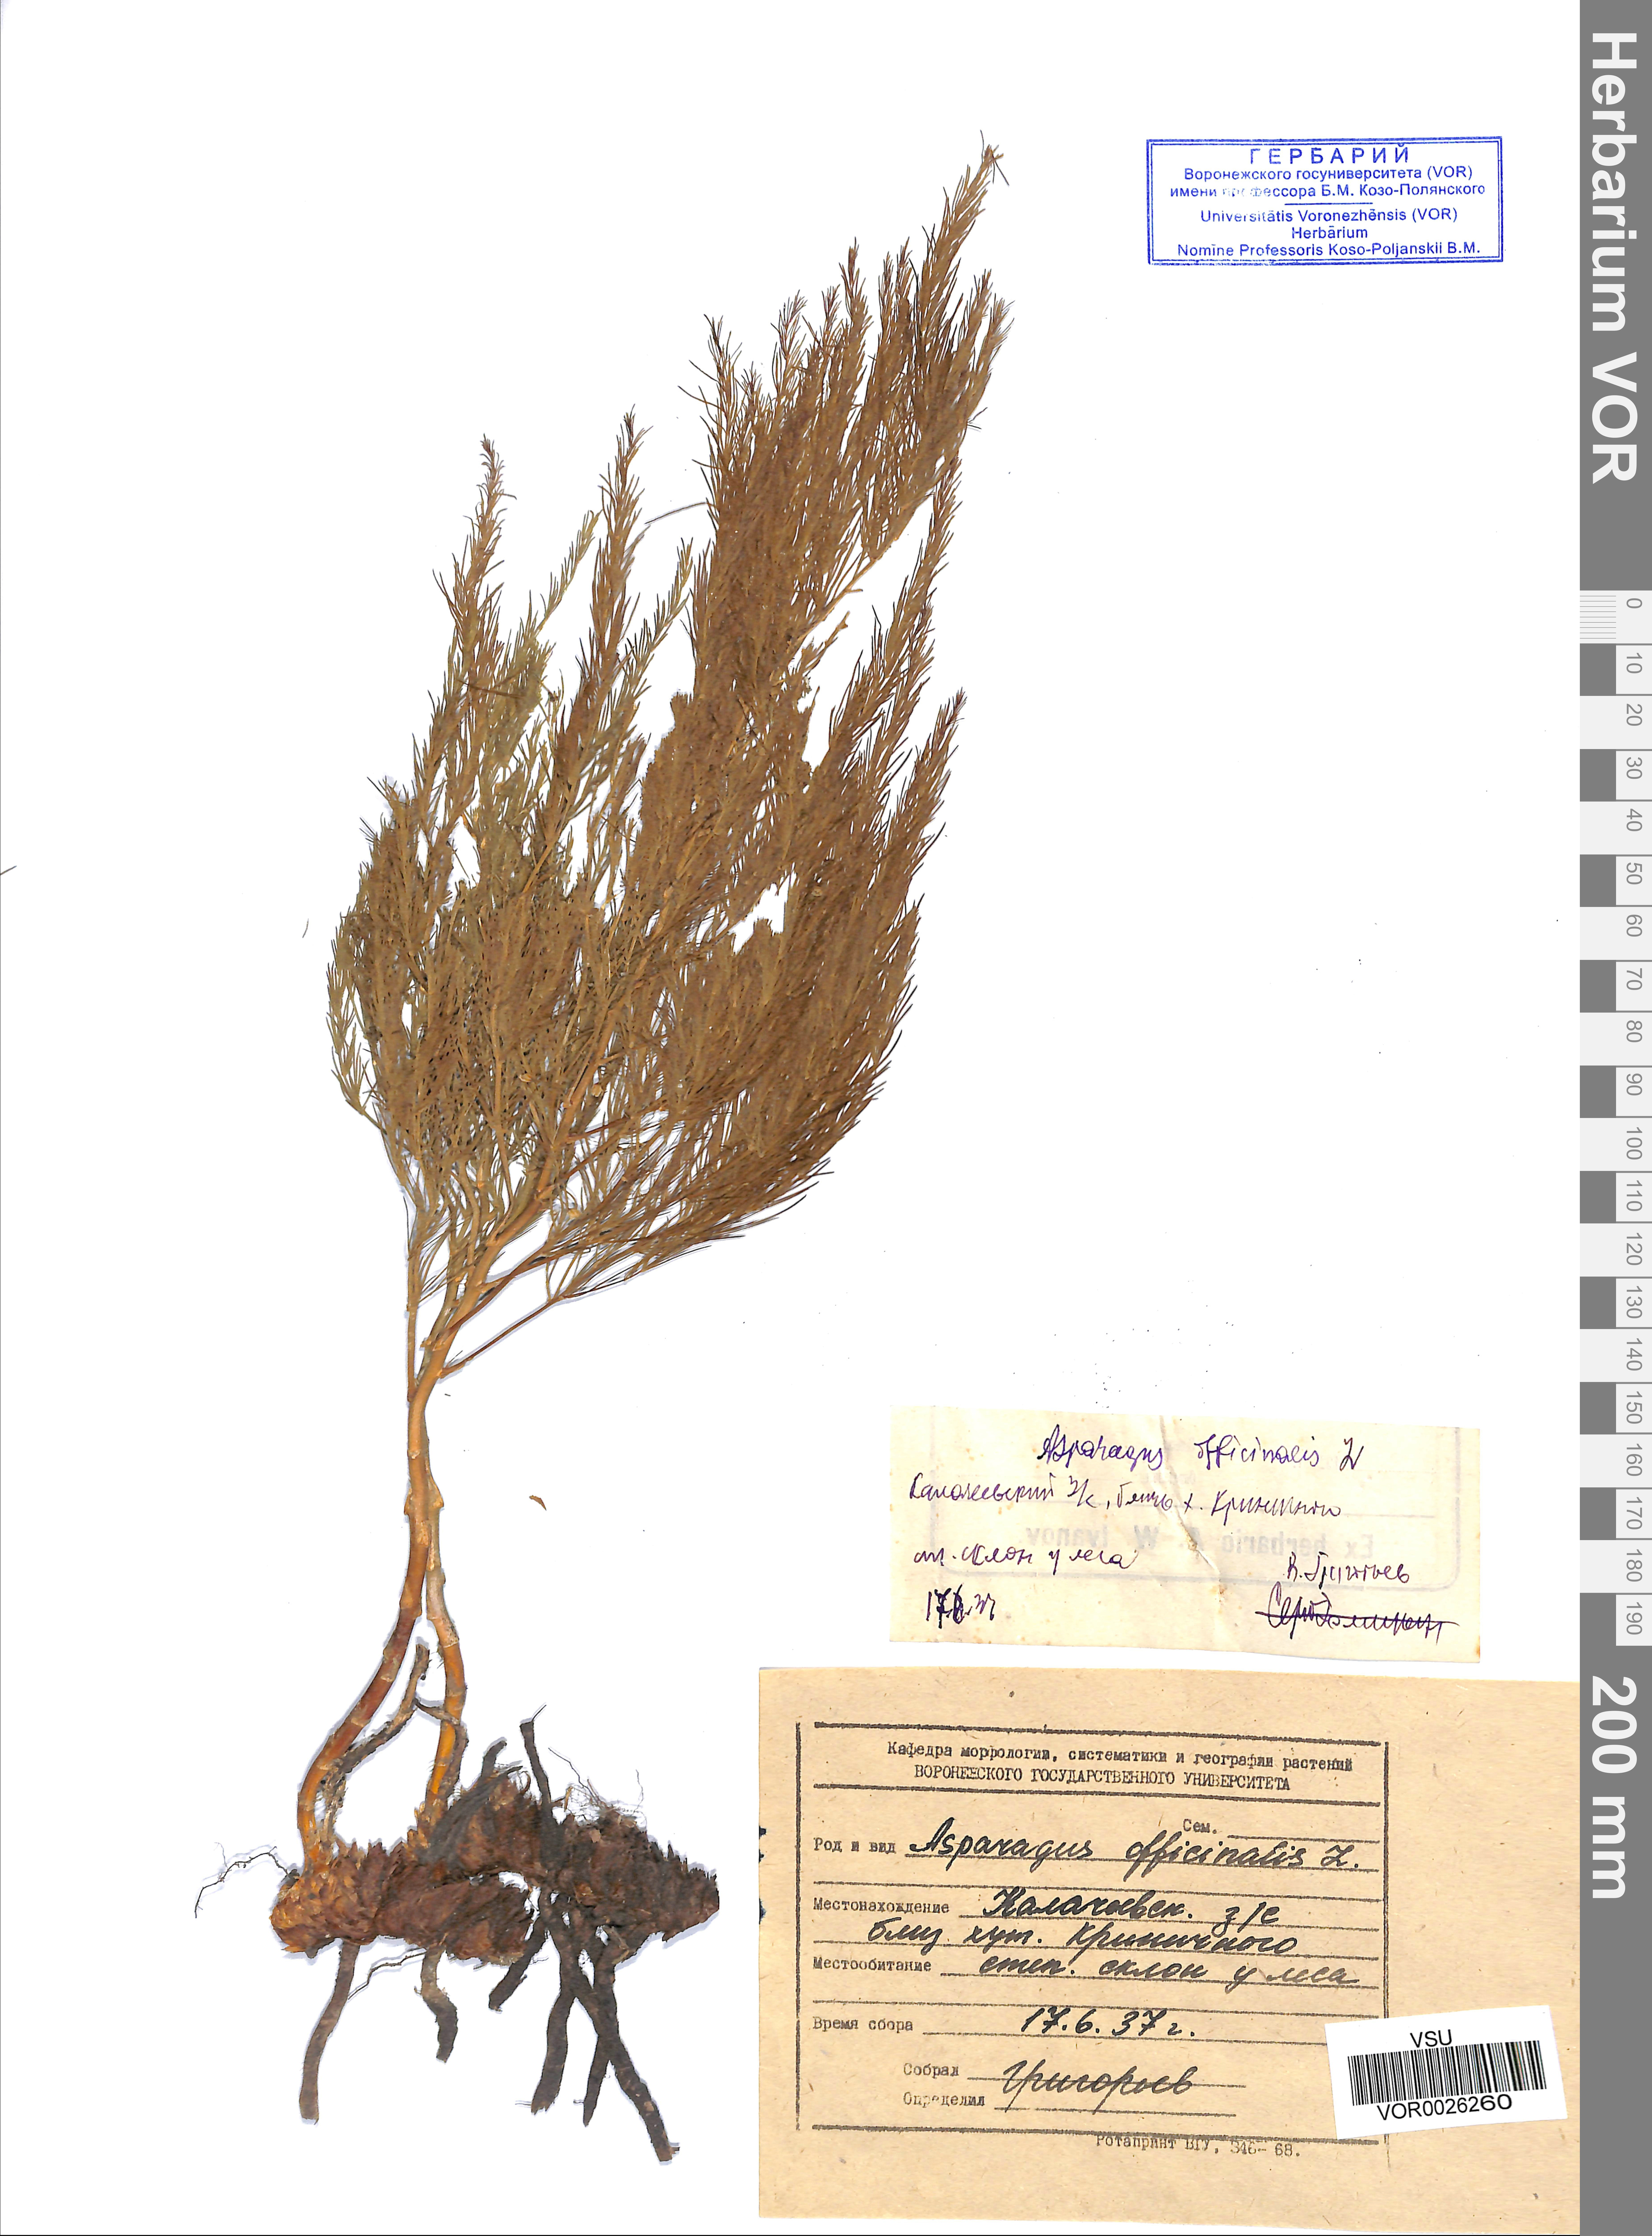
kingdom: Plantae
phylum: Tracheophyta
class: Liliopsida
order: Asparagales
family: Asparagaceae
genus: Asparagus
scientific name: Asparagus officinalis
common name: Garden asparagus
